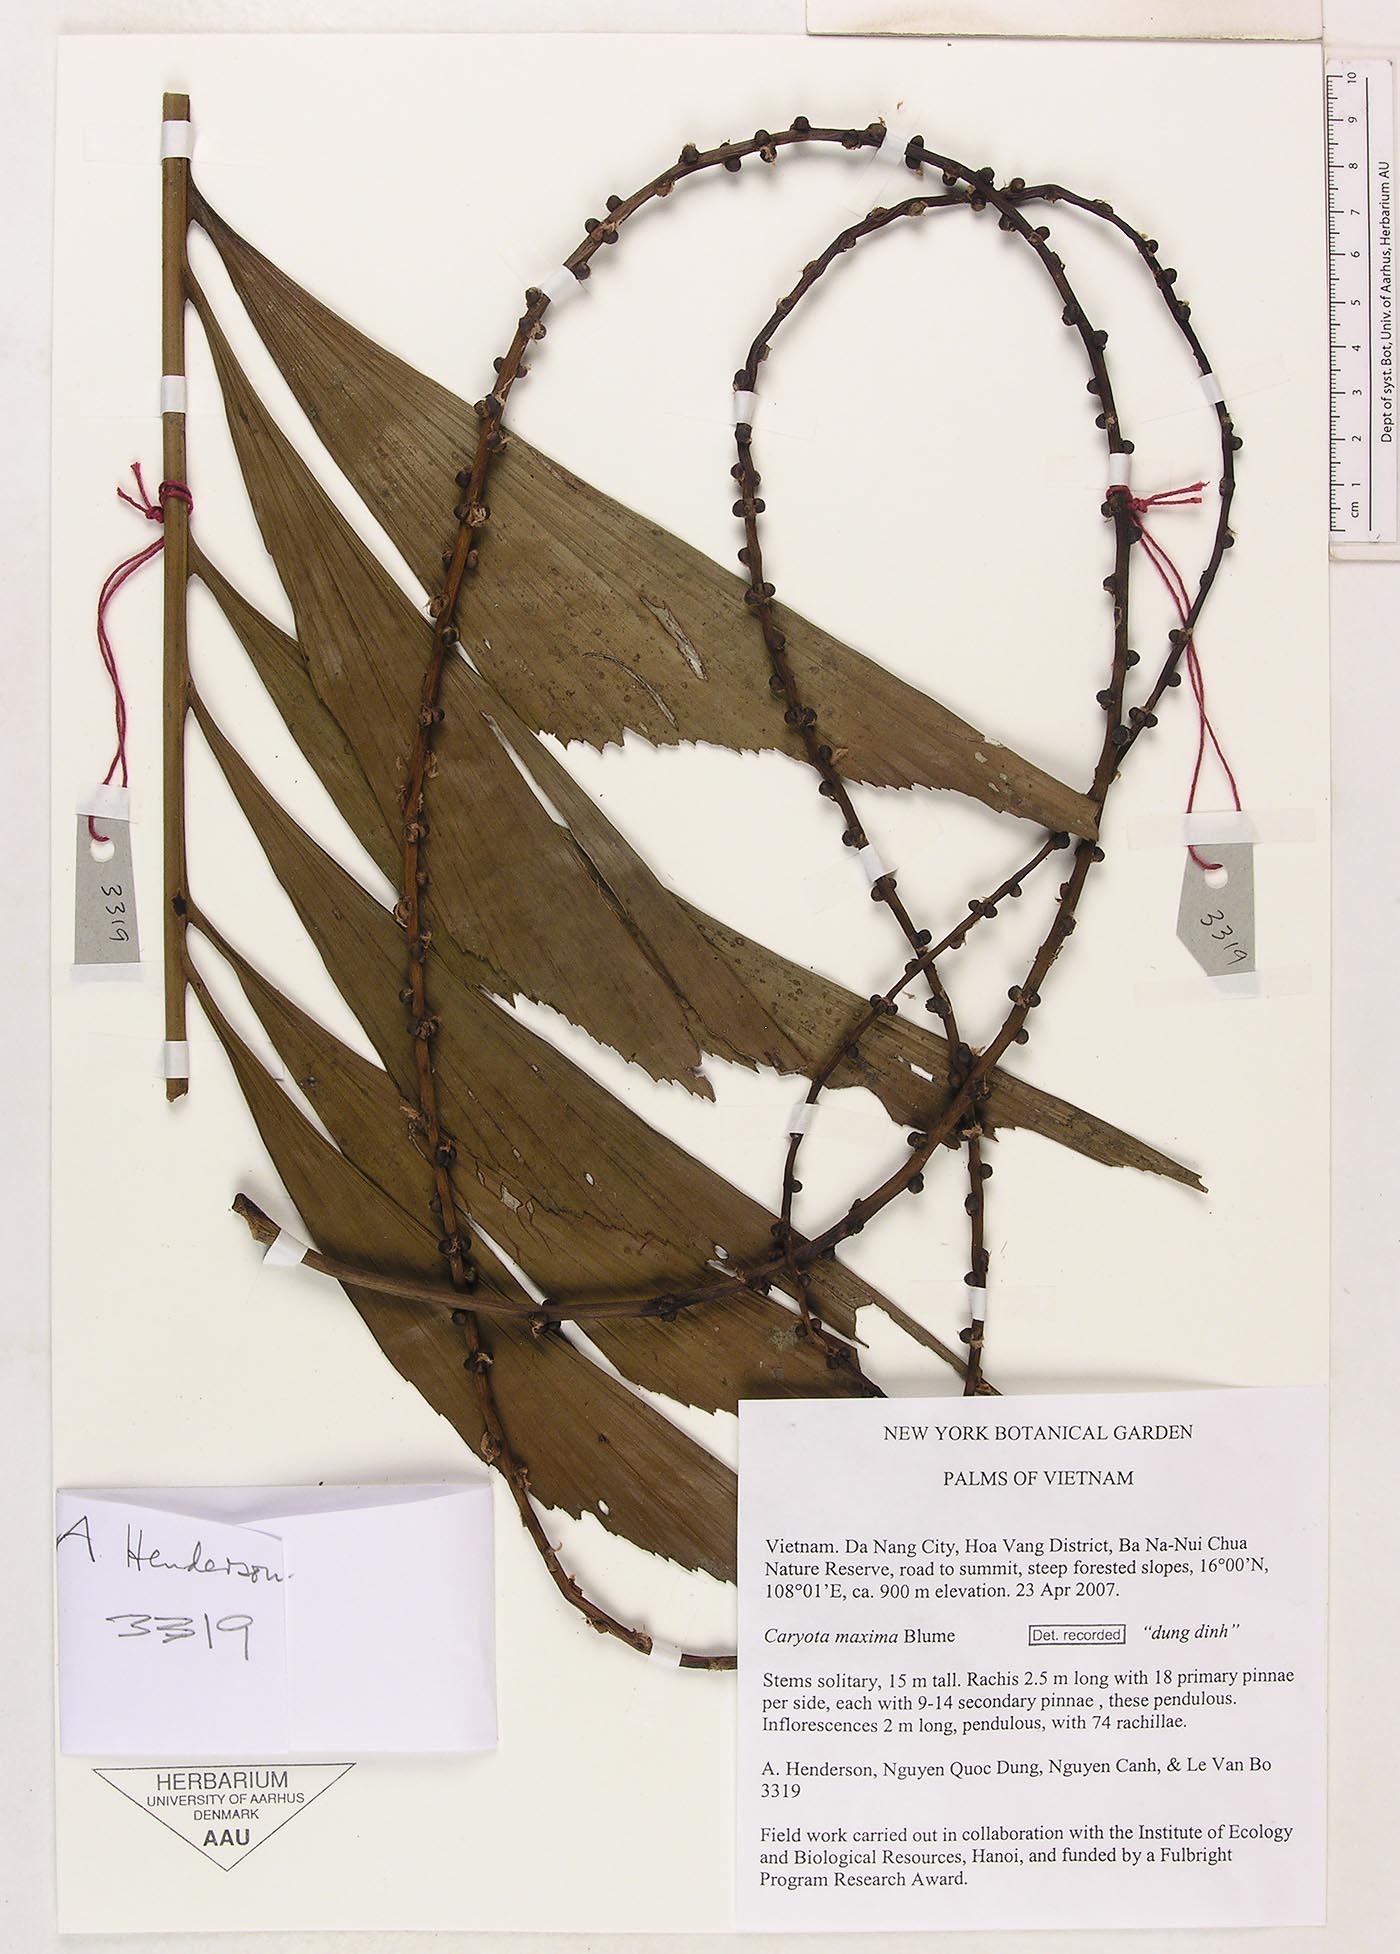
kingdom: Plantae
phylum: Tracheophyta
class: Liliopsida
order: Arecales
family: Arecaceae
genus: Caryota
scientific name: Caryota maxima
